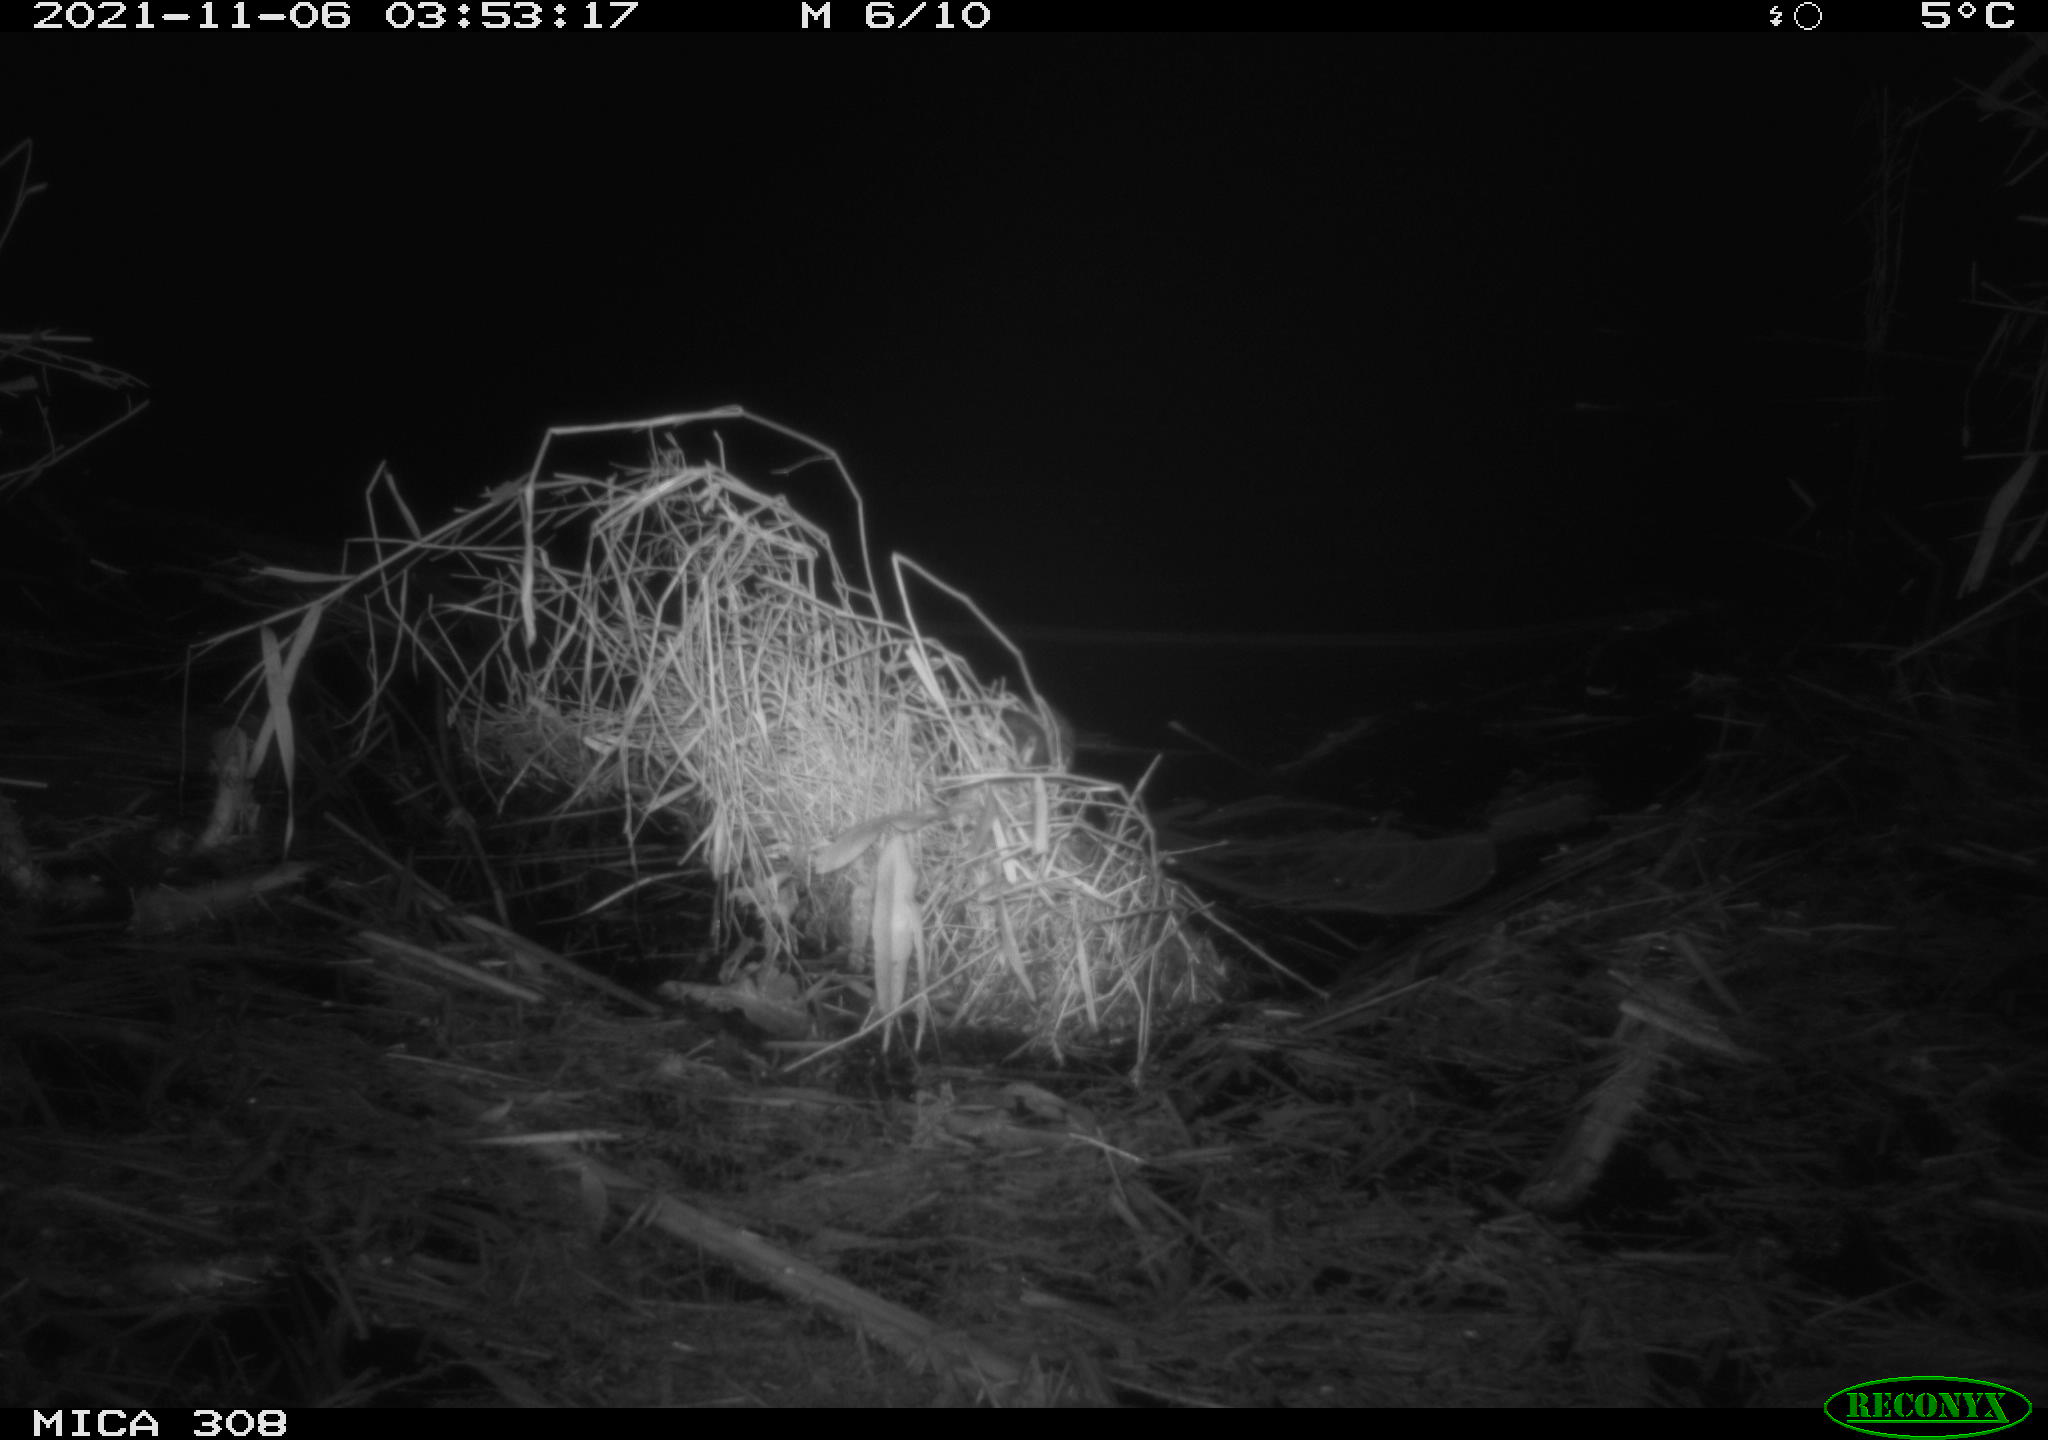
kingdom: Animalia
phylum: Chordata
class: Mammalia
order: Rodentia
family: Muridae
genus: Rattus
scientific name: Rattus norvegicus
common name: Brown rat
